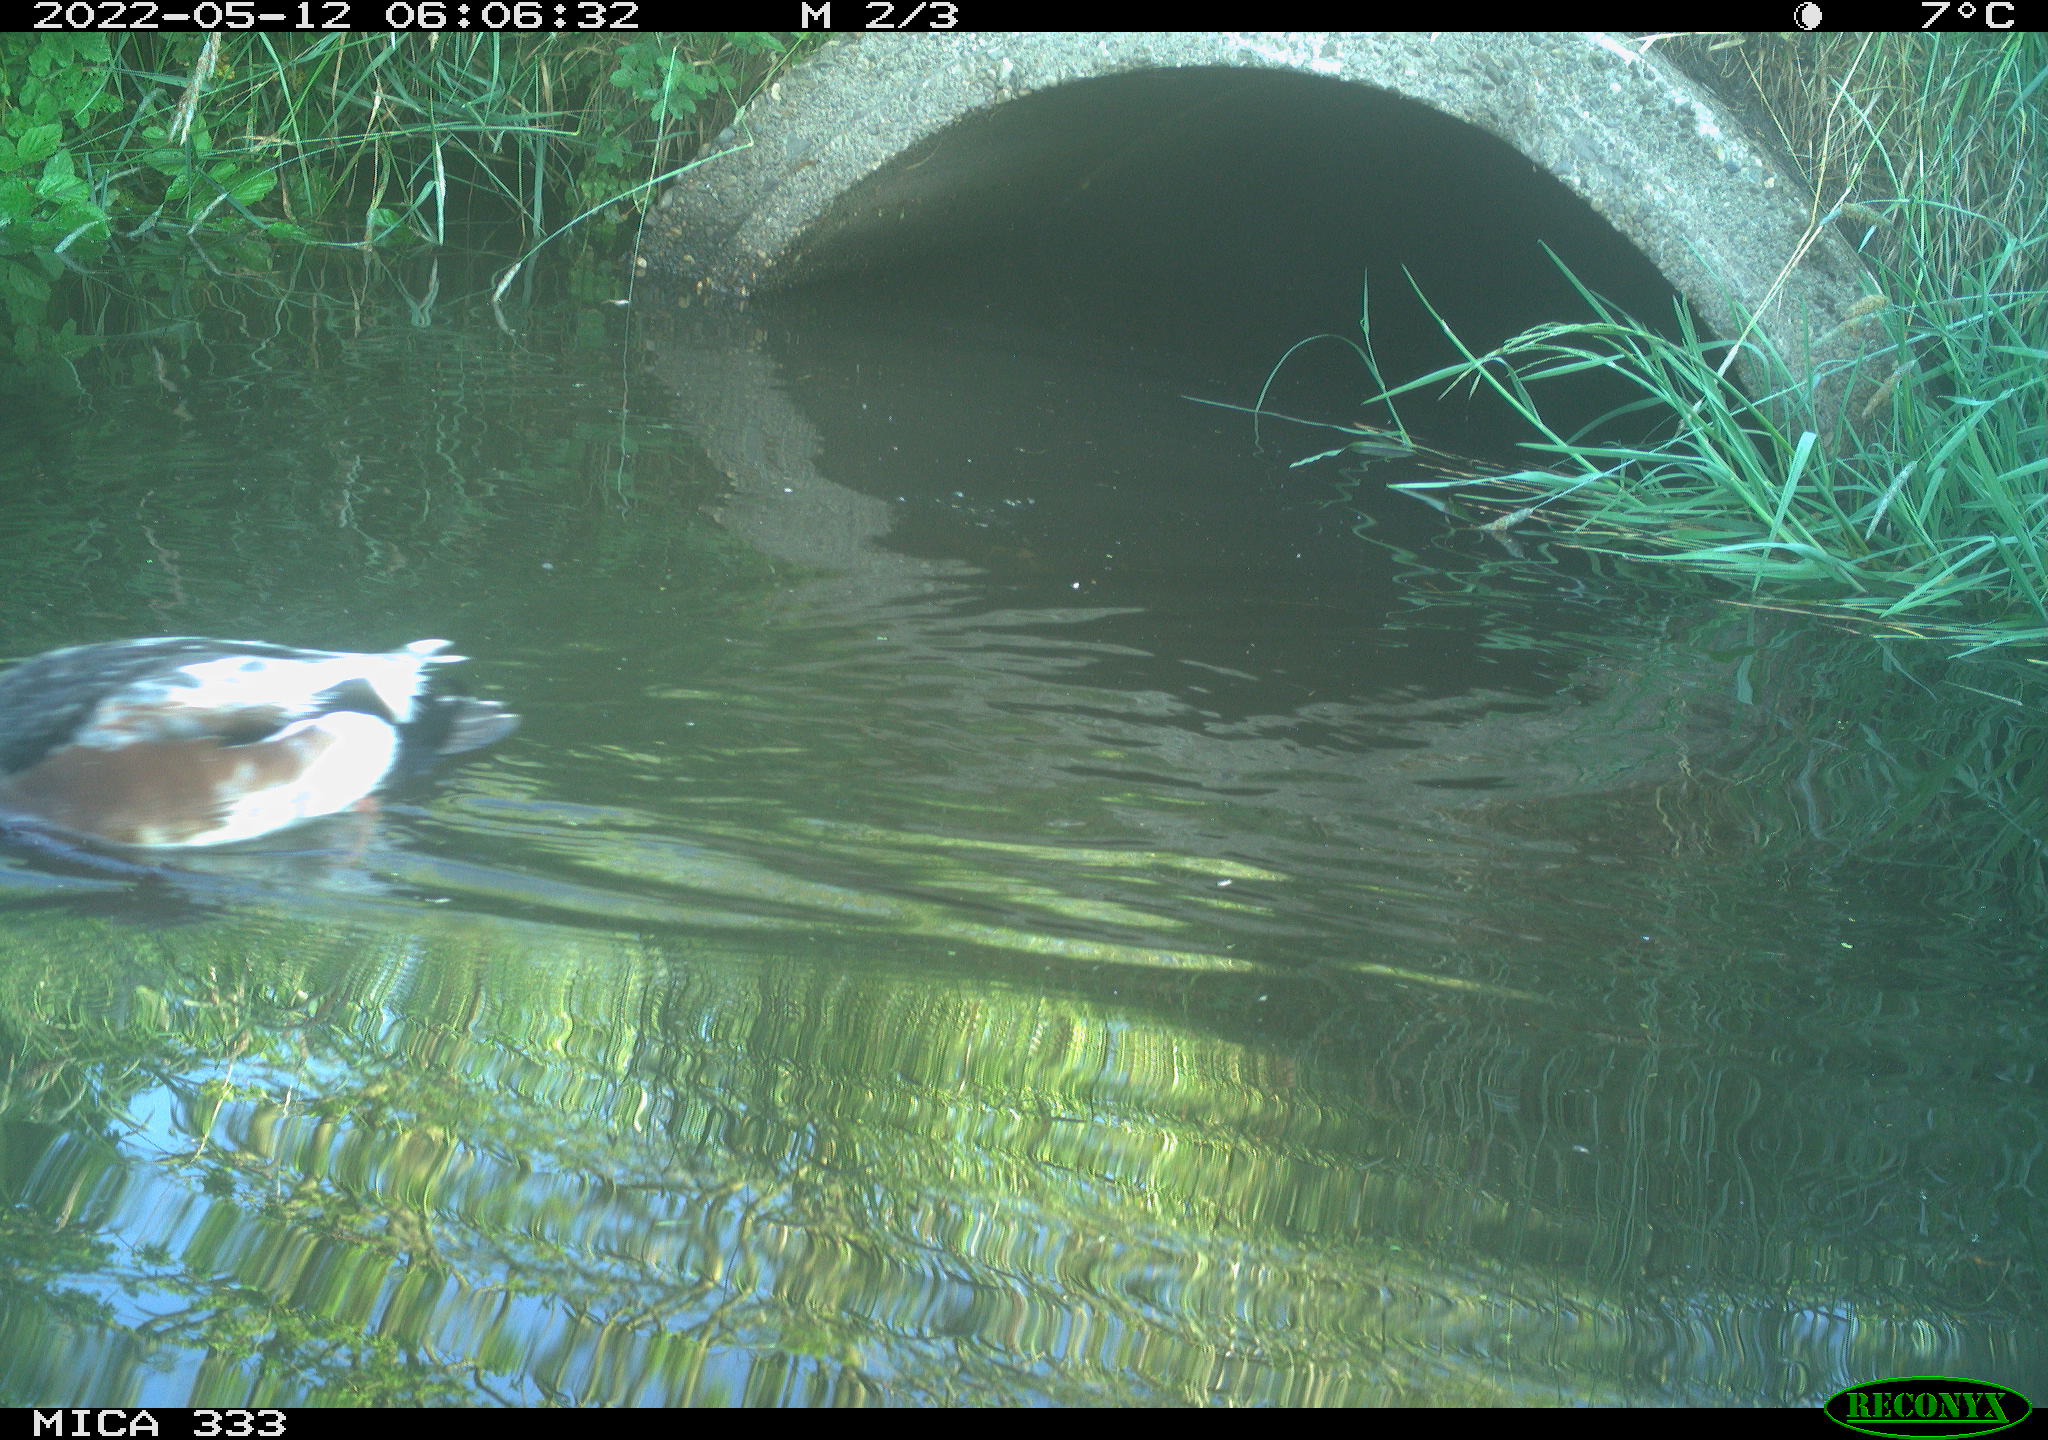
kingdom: Animalia
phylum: Chordata
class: Aves
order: Anseriformes
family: Anatidae
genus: Anas
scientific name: Anas platyrhynchos
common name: Mallard
